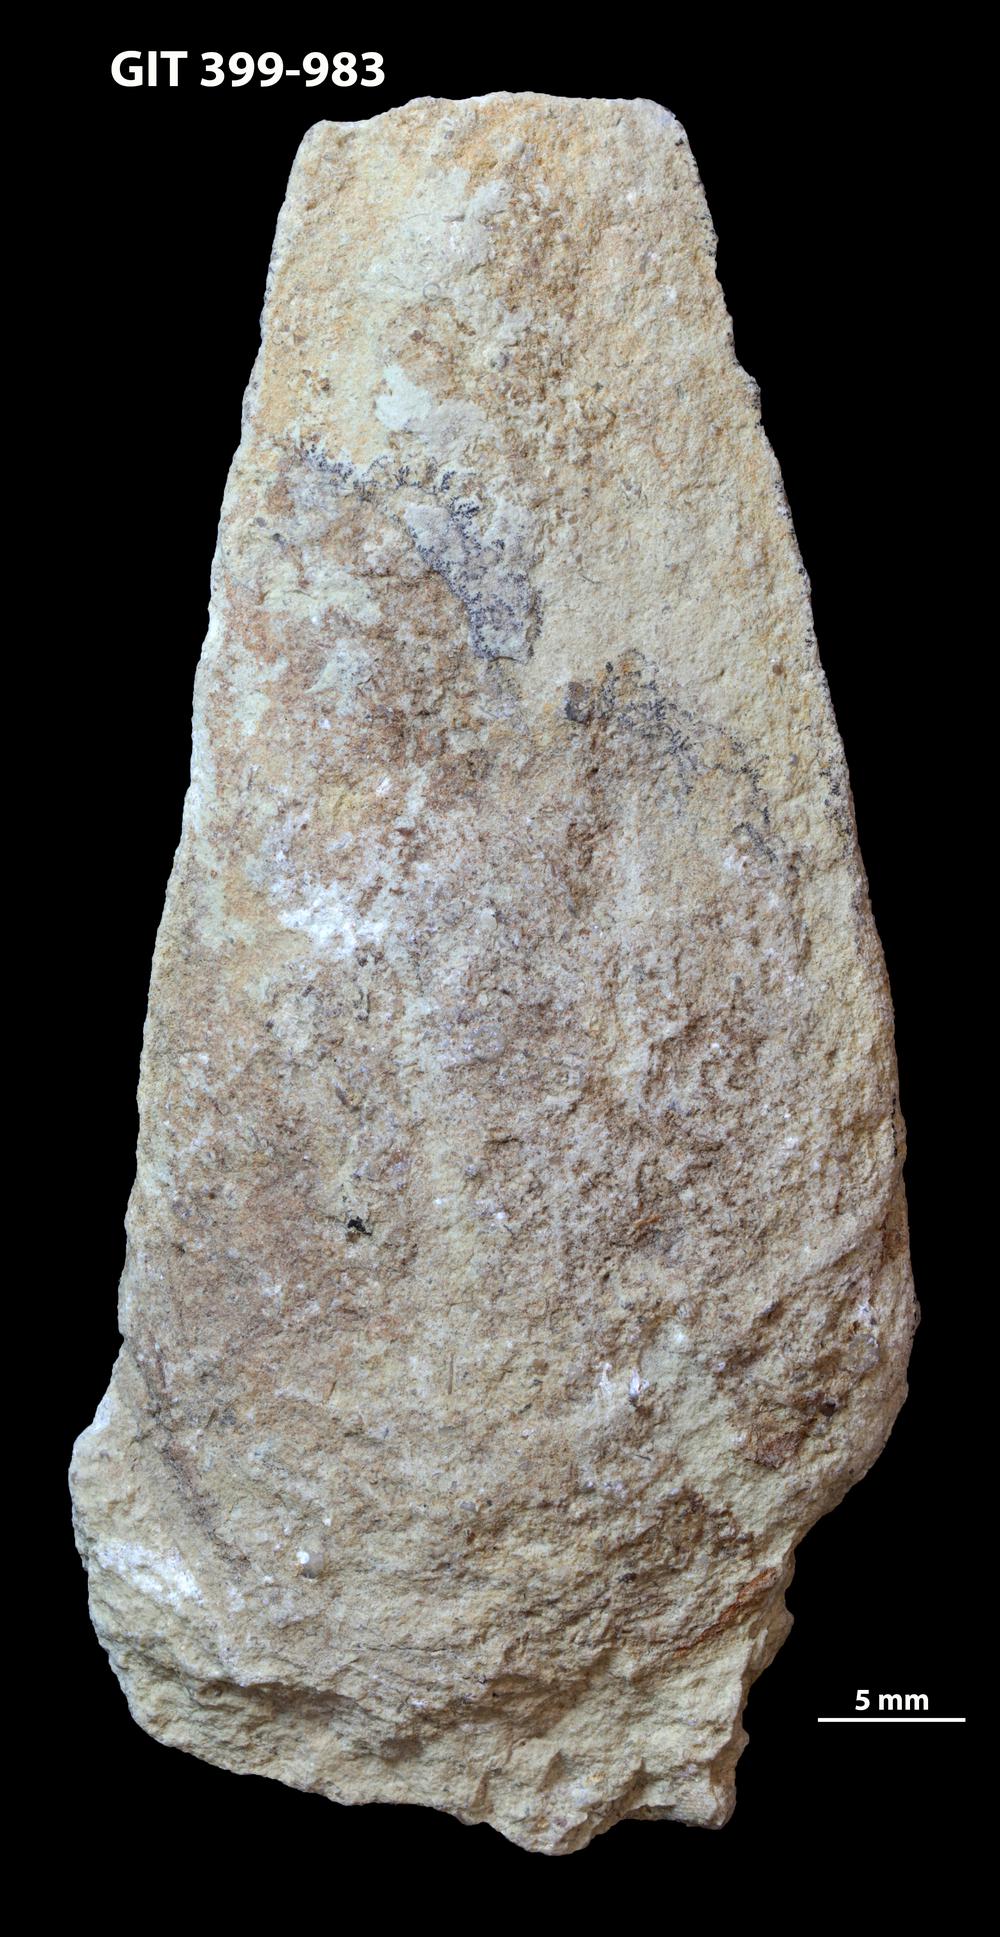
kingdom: Animalia
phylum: Annelida
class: Polychaeta
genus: Hyolithes
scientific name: Hyolithes
